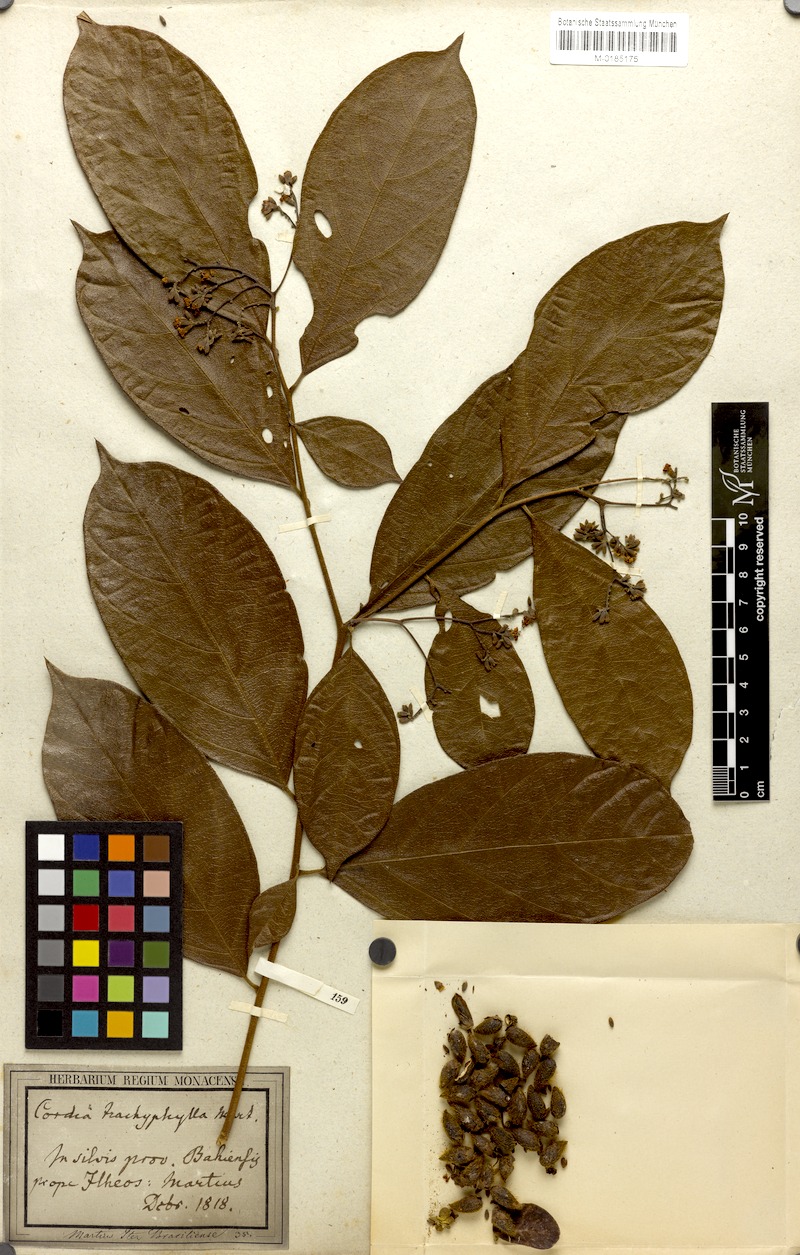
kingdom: Plantae
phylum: Tracheophyta
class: Magnoliopsida
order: Boraginales
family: Cordiaceae
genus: Cordia
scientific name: Cordia trachyphylla
